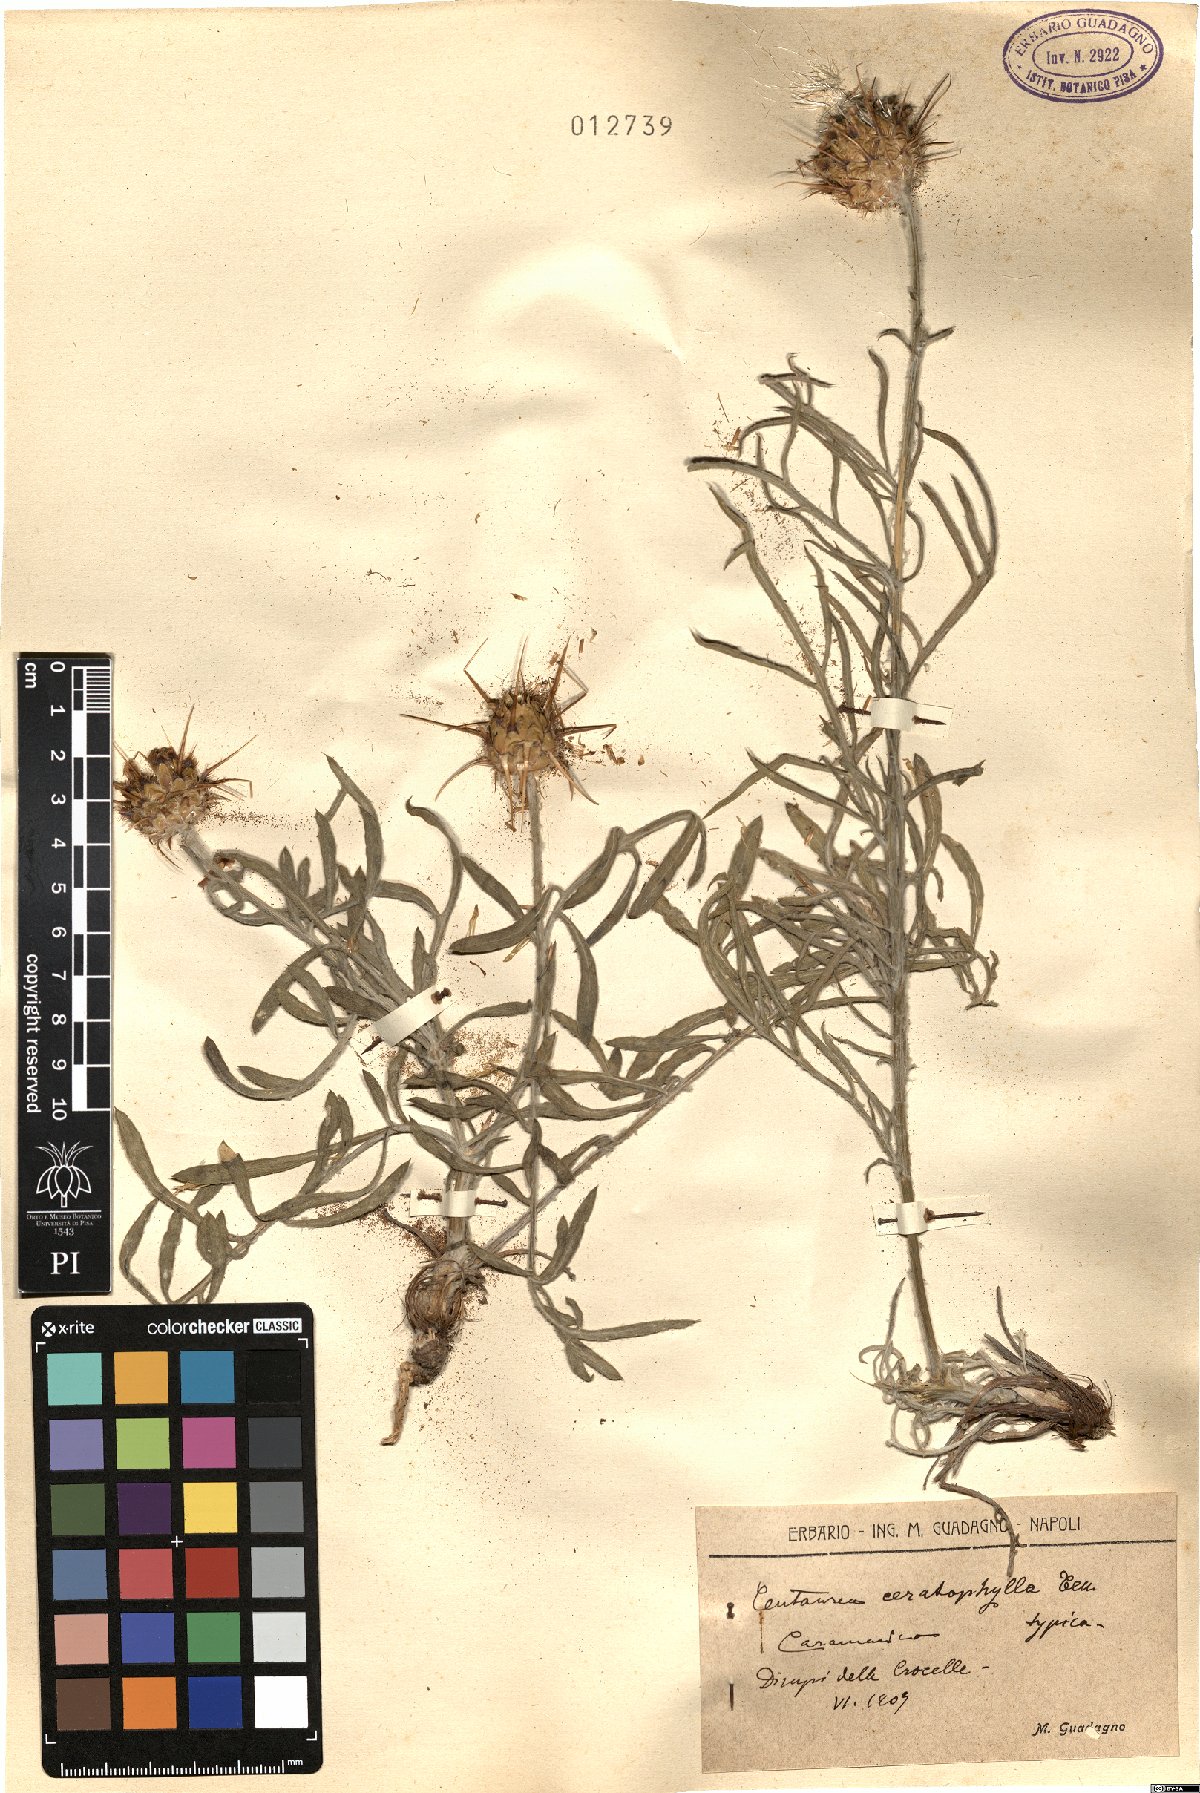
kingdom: Plantae
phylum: Tracheophyta
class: Magnoliopsida
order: Asterales
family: Asteraceae
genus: Centaurea
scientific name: Centaurea ceratophylla
